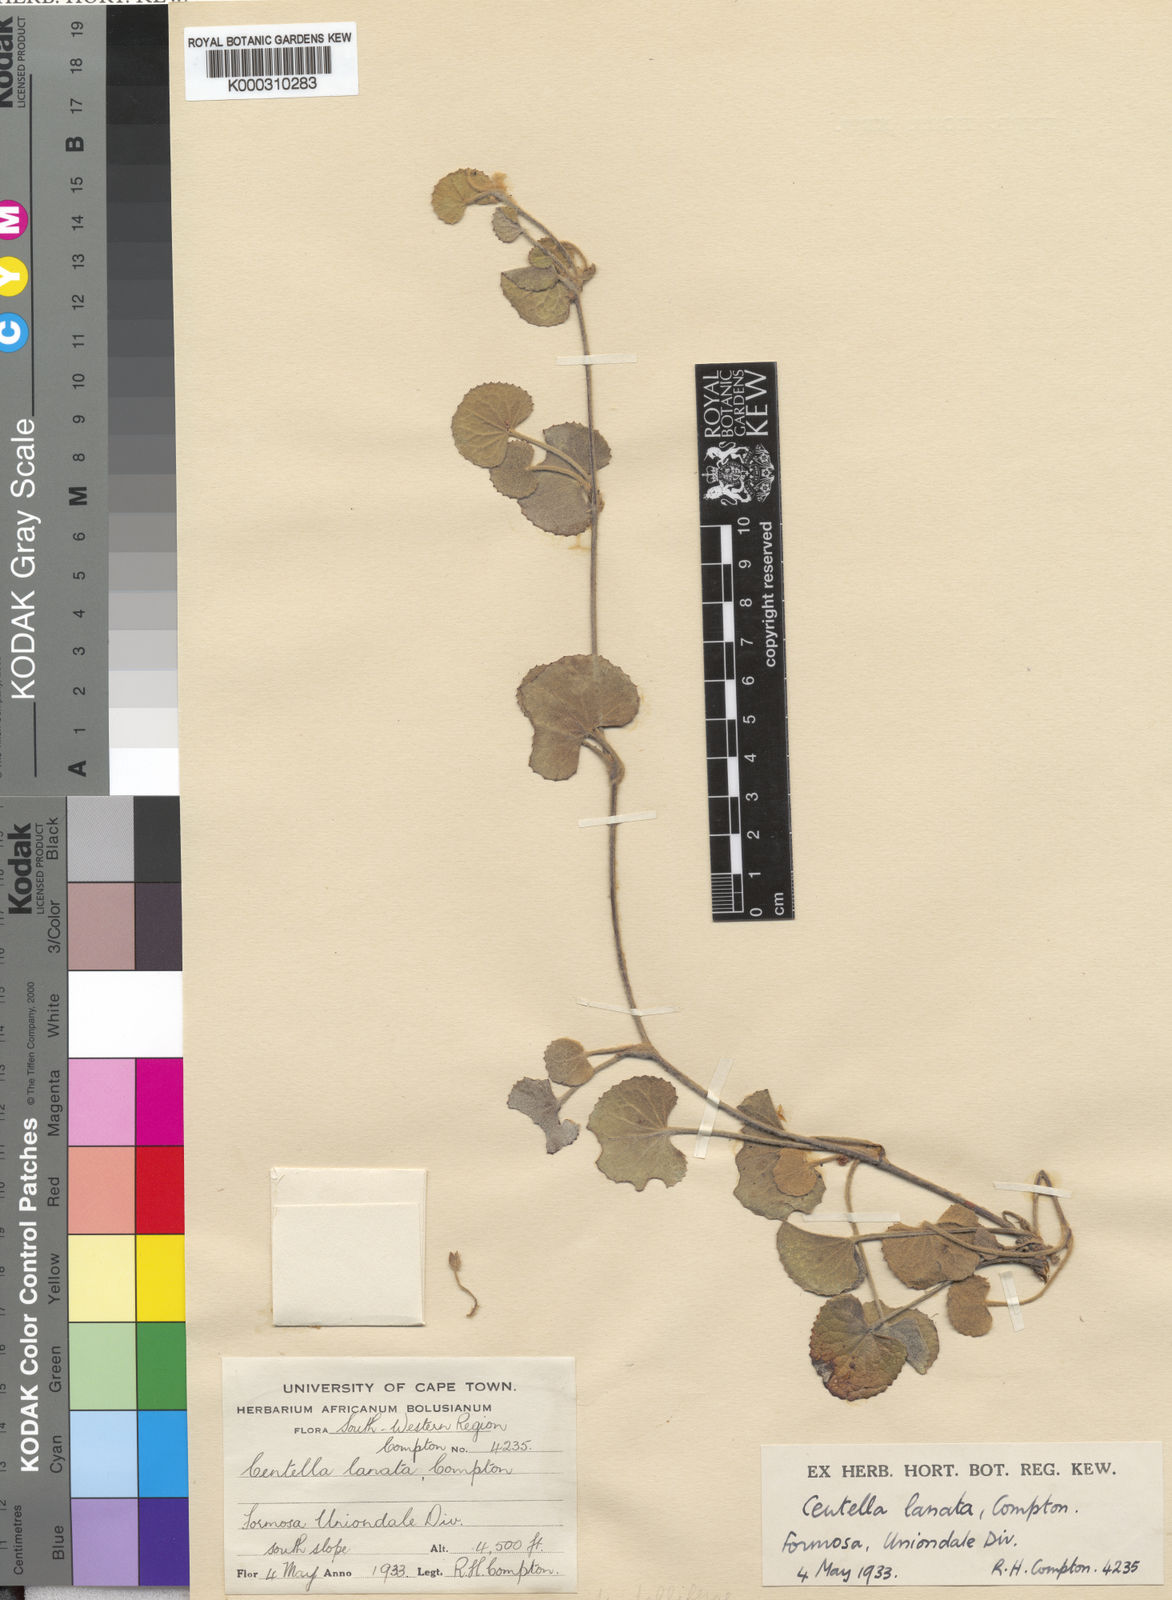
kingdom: Plantae
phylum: Tracheophyta
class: Magnoliopsida
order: Apiales
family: Apiaceae
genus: Centella
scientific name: Centella lanata
